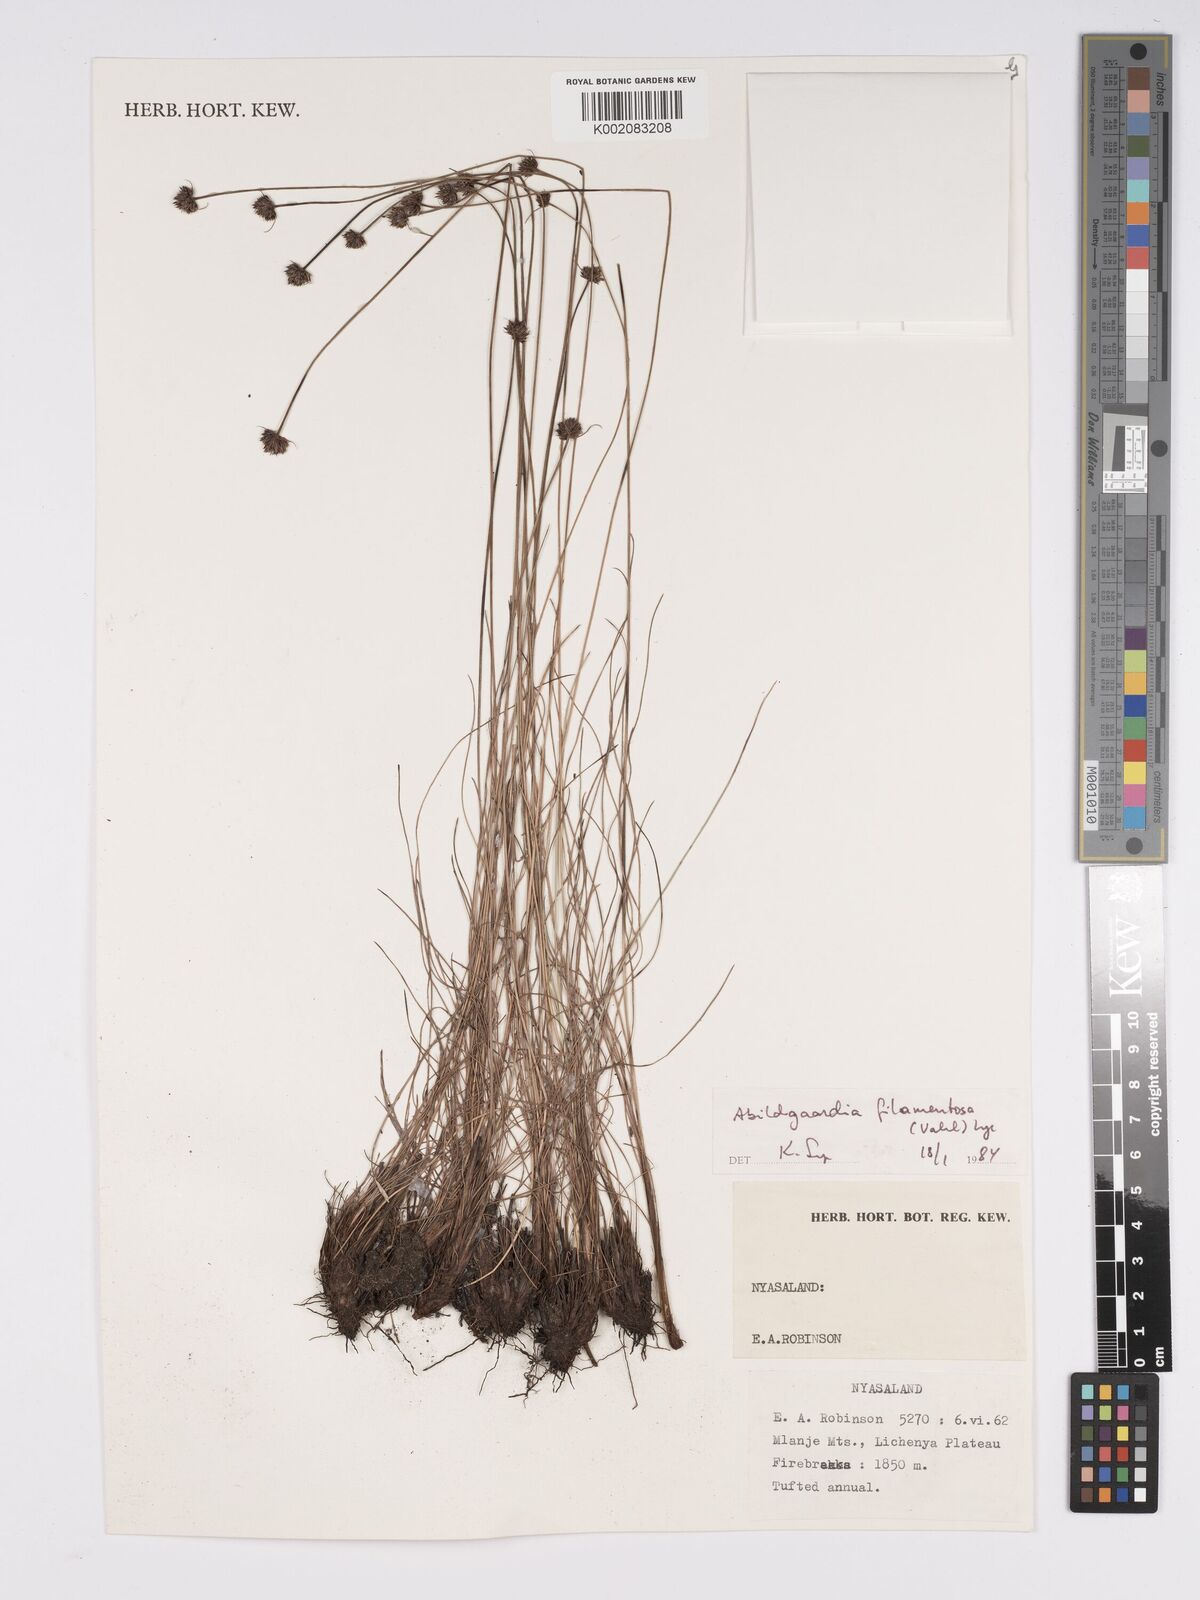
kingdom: Plantae
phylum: Tracheophyta
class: Liliopsida
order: Poales
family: Cyperaceae
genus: Bulbostylis
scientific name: Bulbostylis filamentosa
